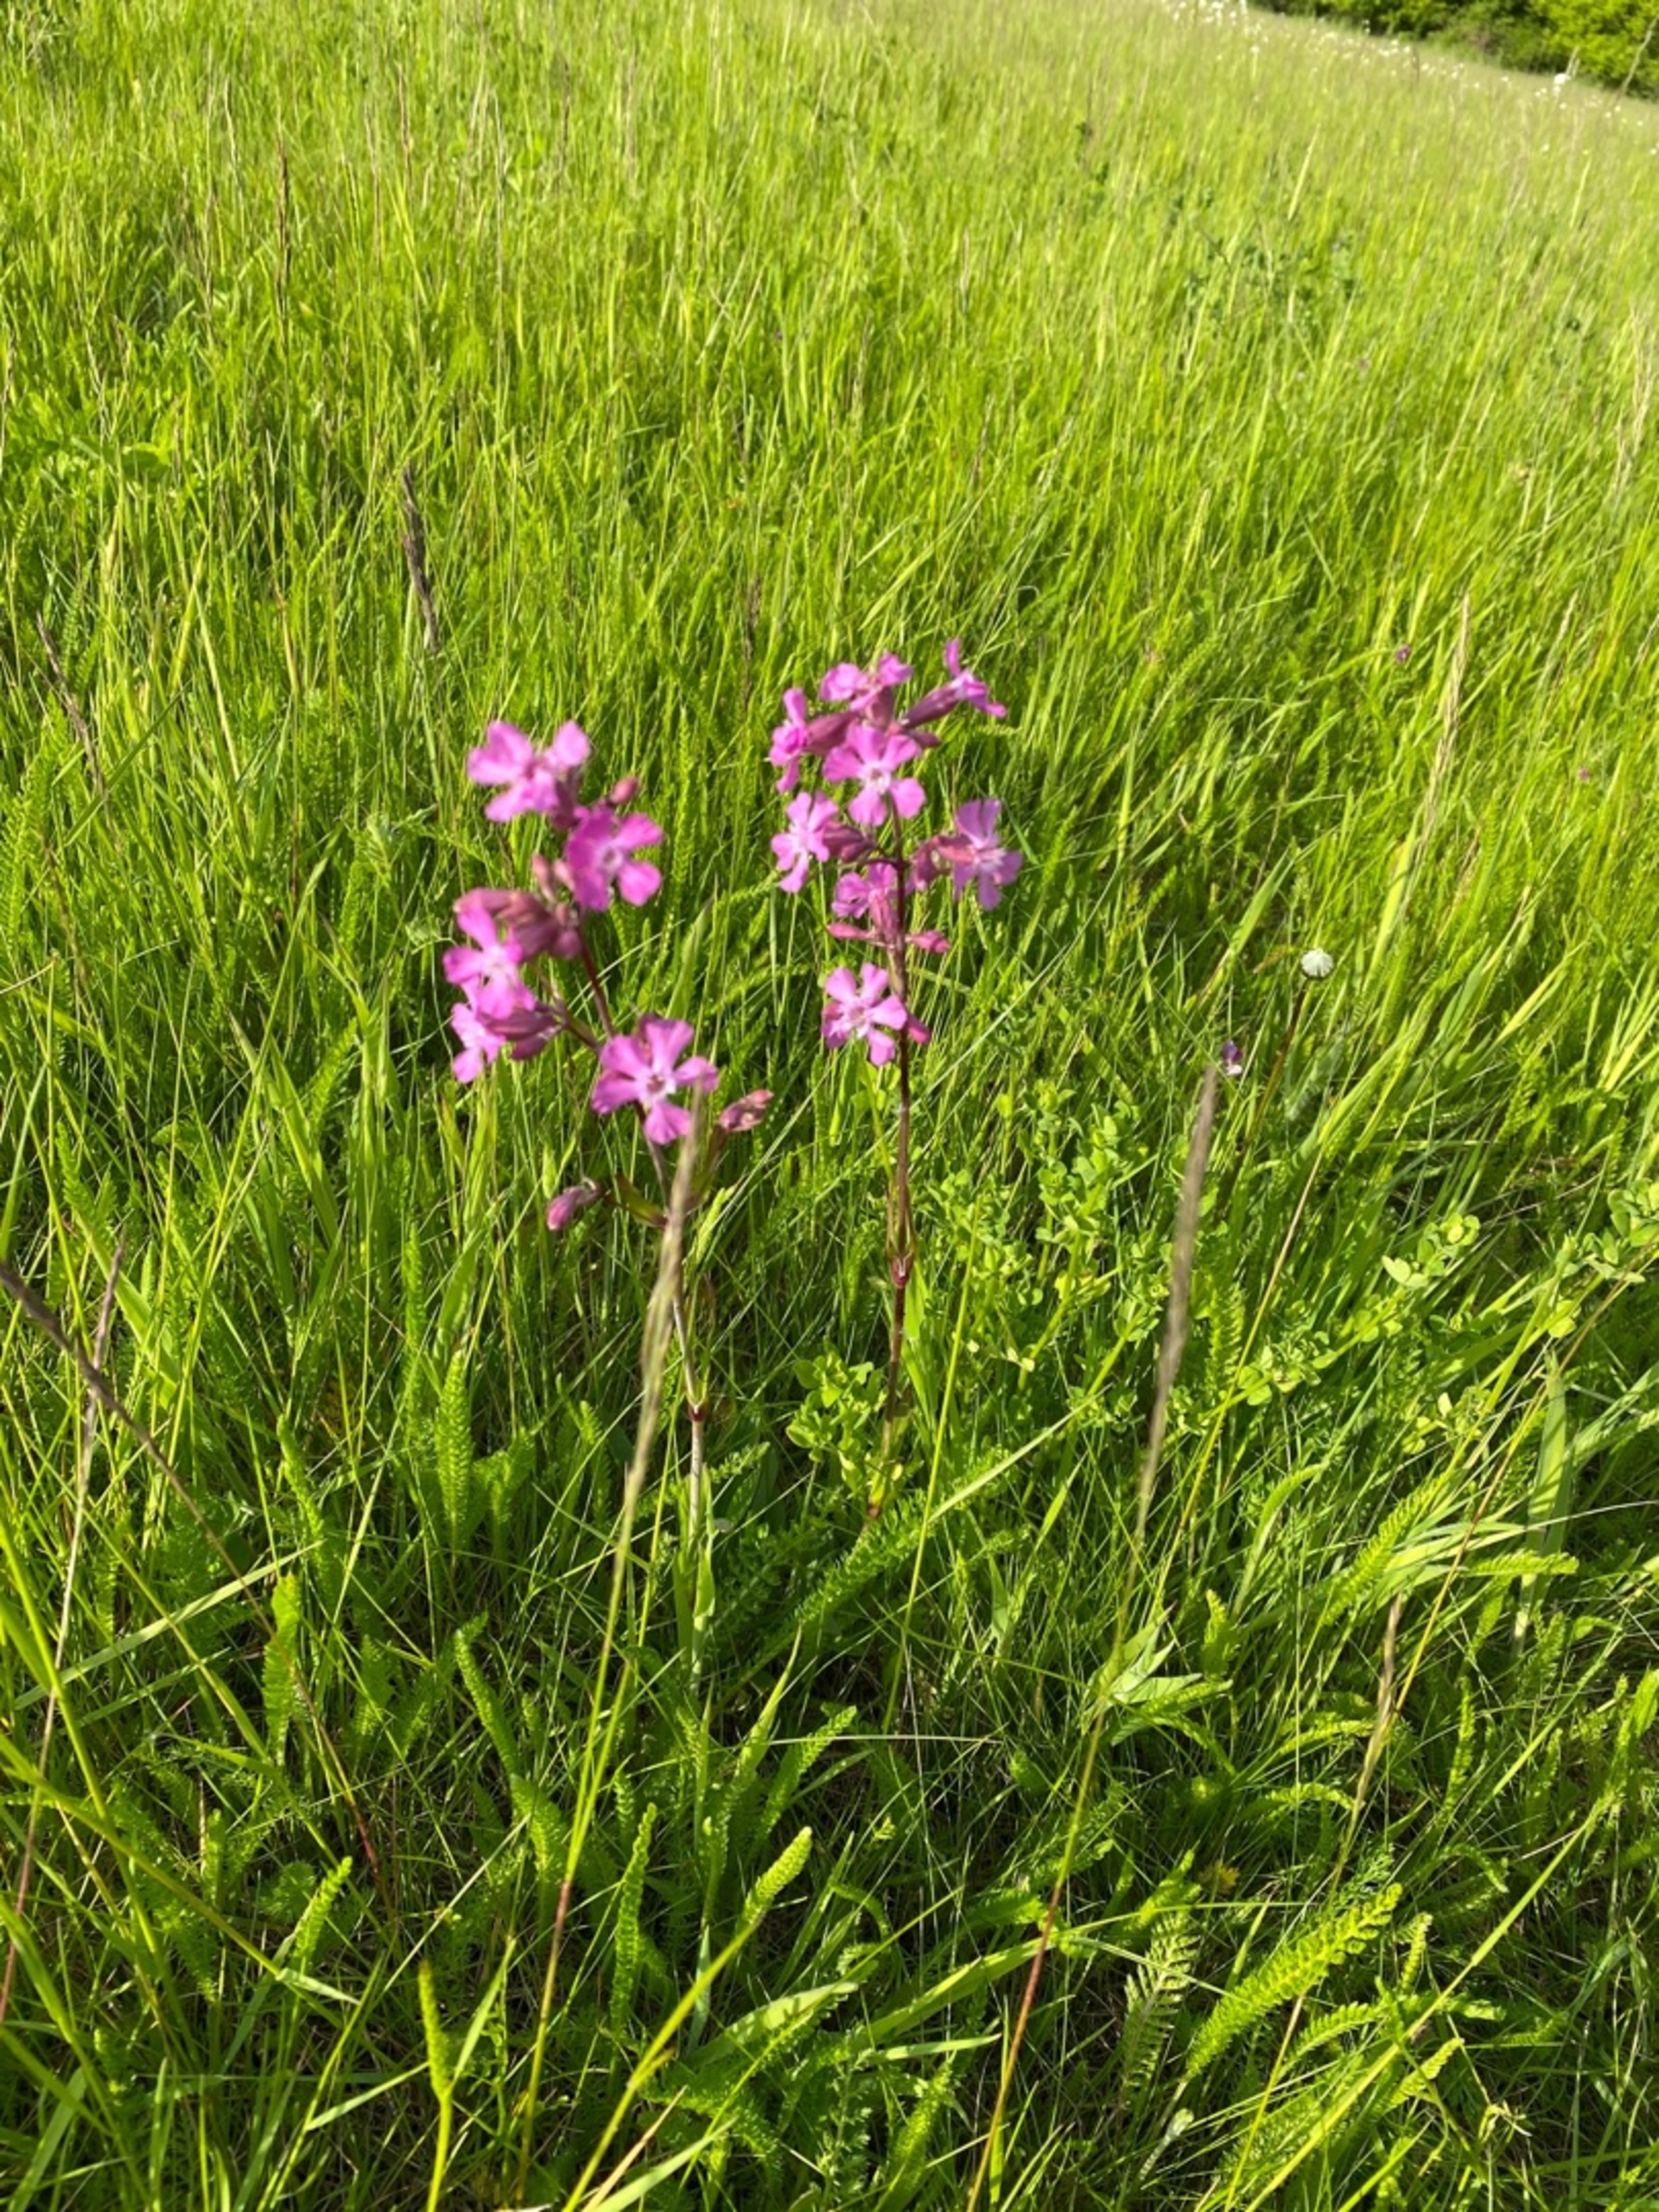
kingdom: Plantae
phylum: Tracheophyta
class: Magnoliopsida
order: Caryophyllales
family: Caryophyllaceae
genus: Viscaria
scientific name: Viscaria vulgaris
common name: Tjærenellike
